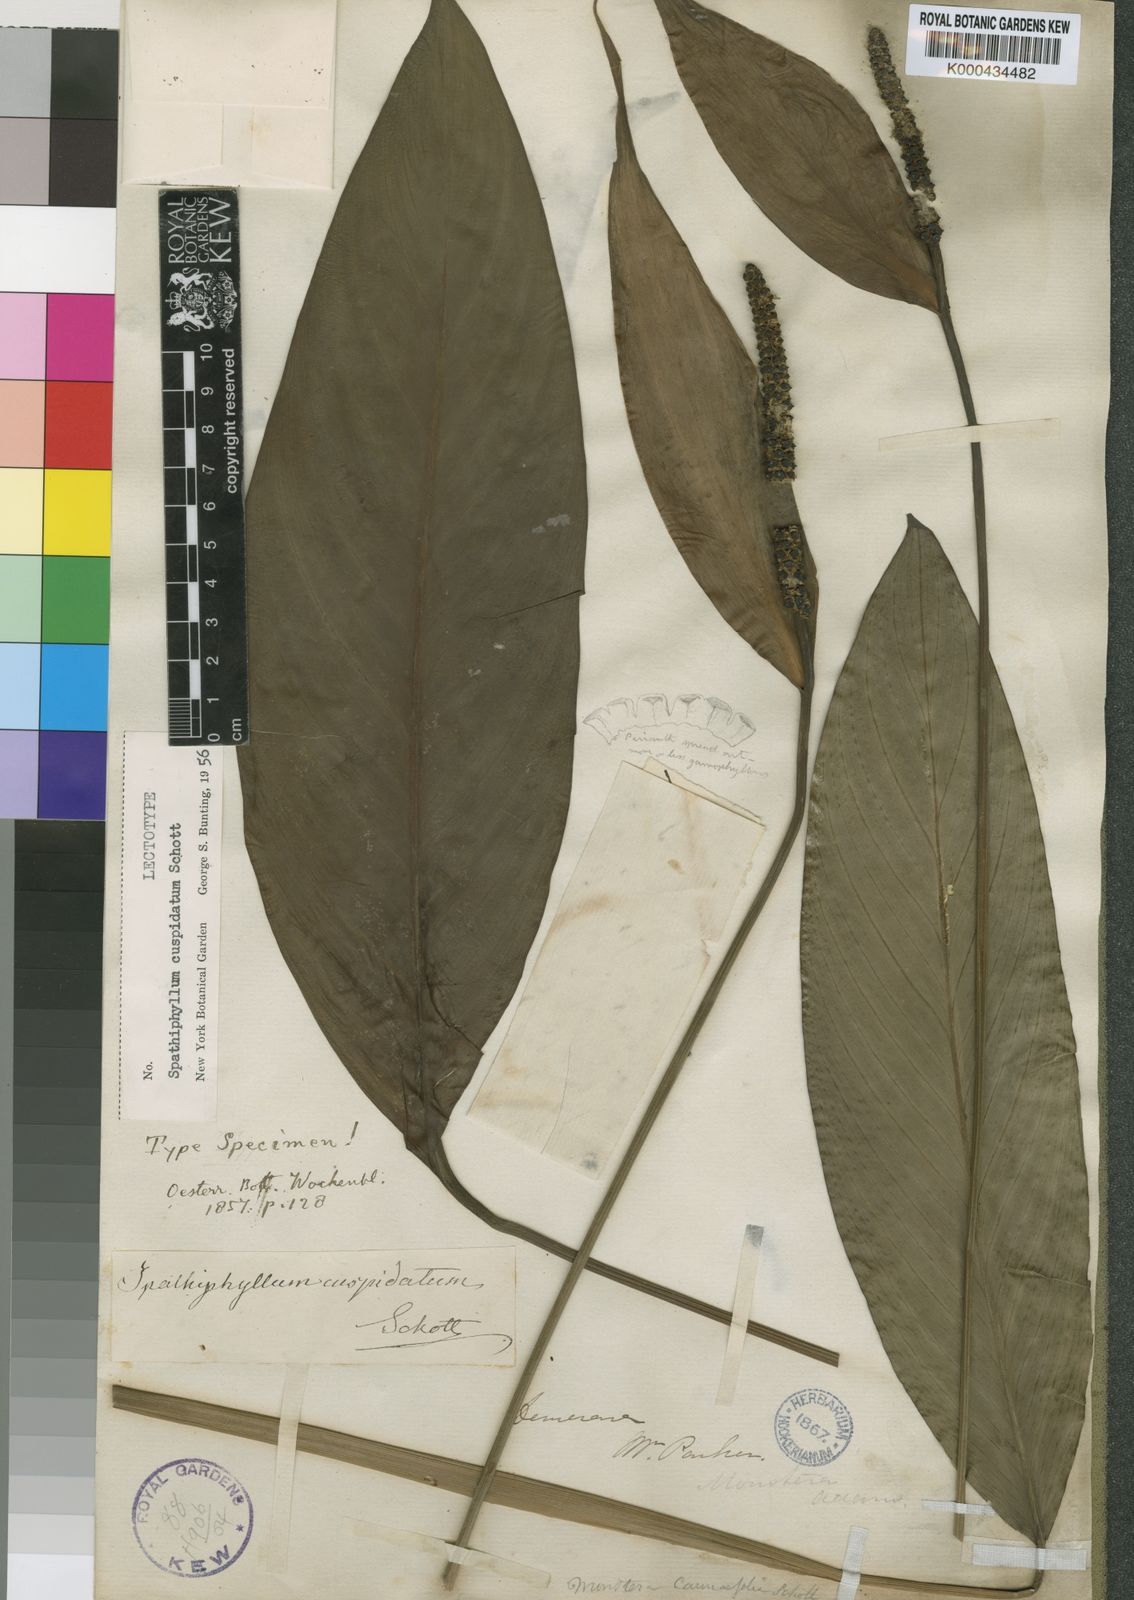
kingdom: Plantae
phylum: Tracheophyta
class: Liliopsida
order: Alismatales
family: Araceae
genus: Spathiphyllum
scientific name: Spathiphyllum cuspidatum
